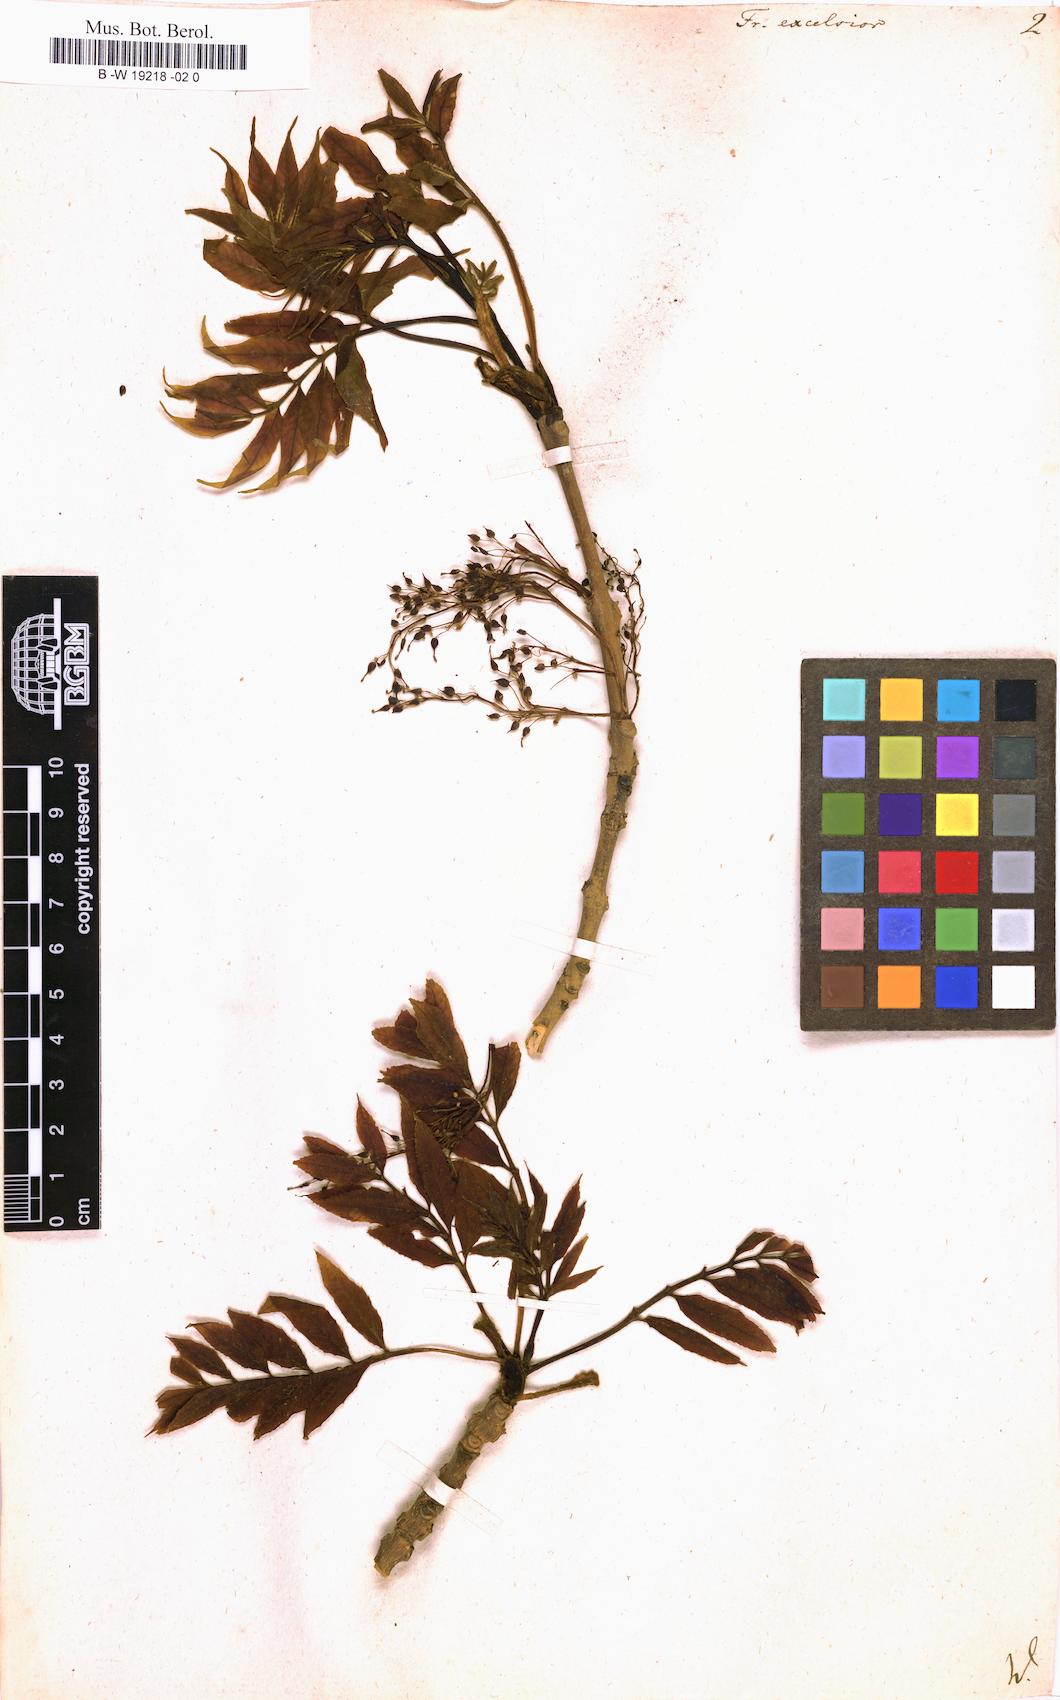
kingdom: Plantae
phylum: Tracheophyta
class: Magnoliopsida
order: Lamiales
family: Oleaceae
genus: Fraxinus
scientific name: Fraxinus excelsior
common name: European ash
